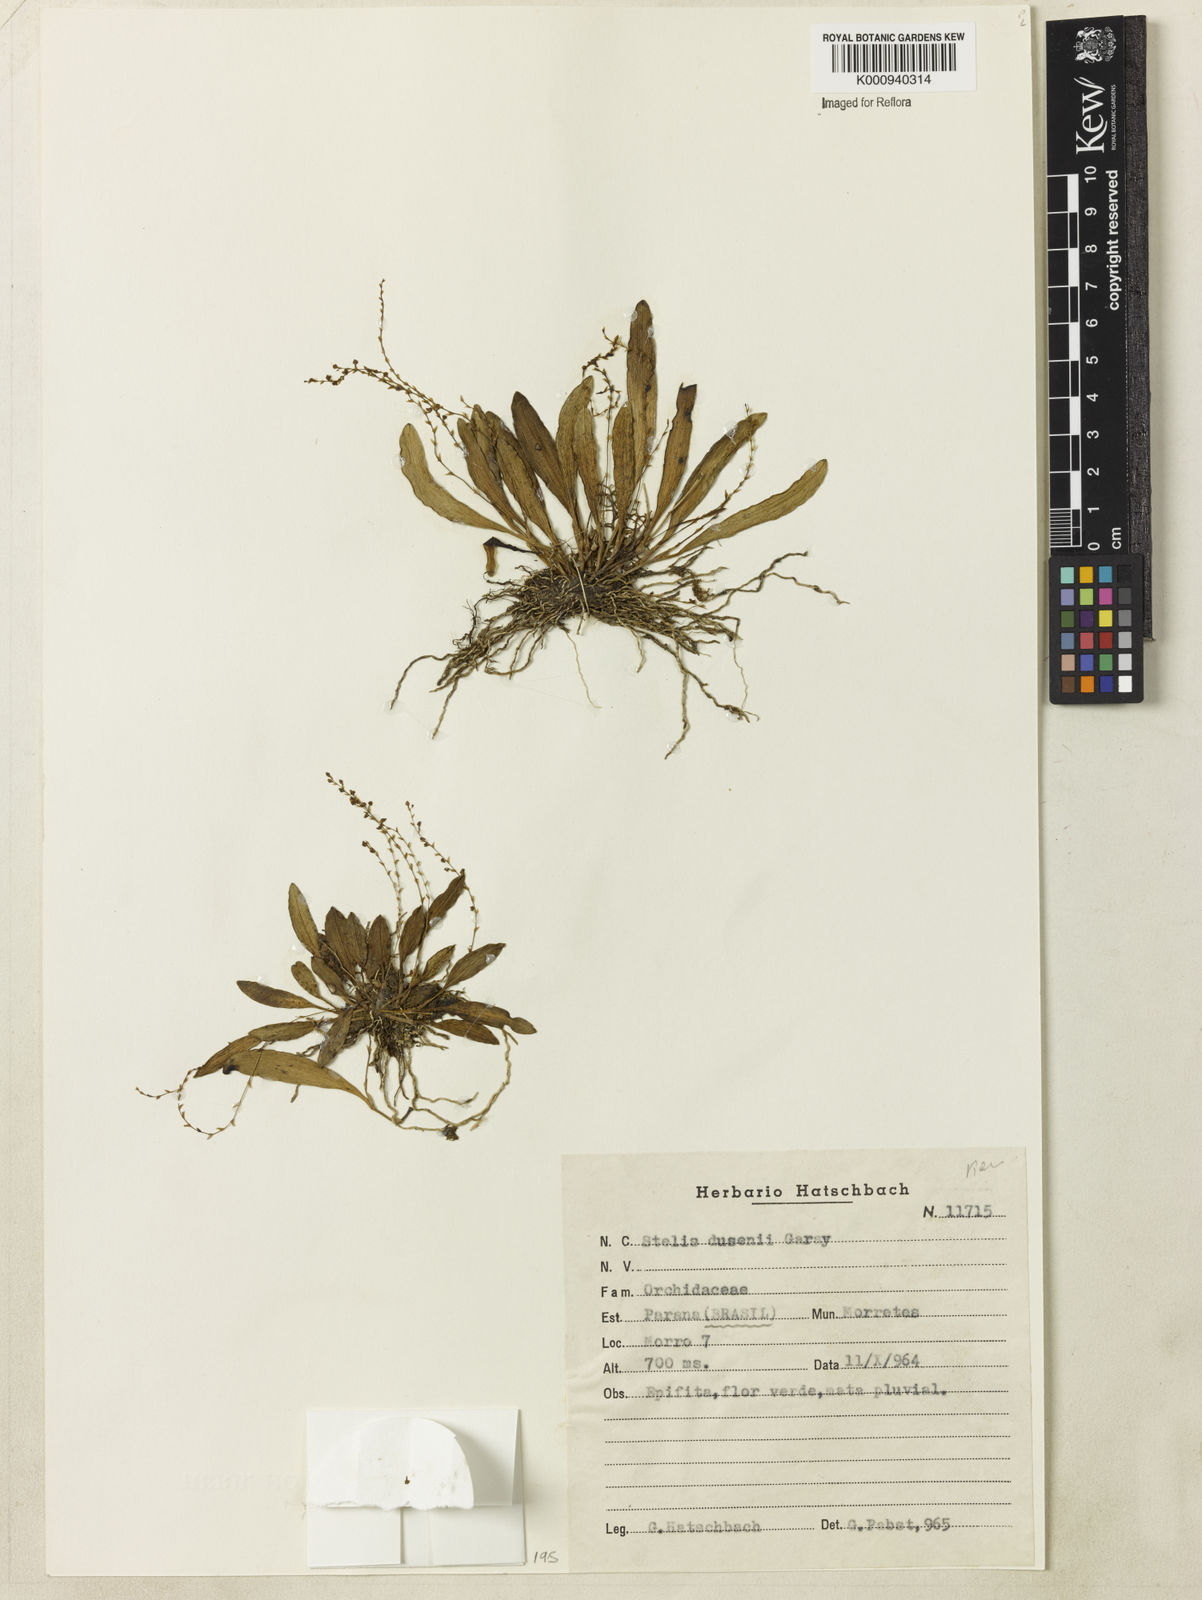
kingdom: Plantae
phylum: Tracheophyta
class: Liliopsida
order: Asparagales
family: Orchidaceae
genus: Stelis
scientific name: Stelis intermedia
